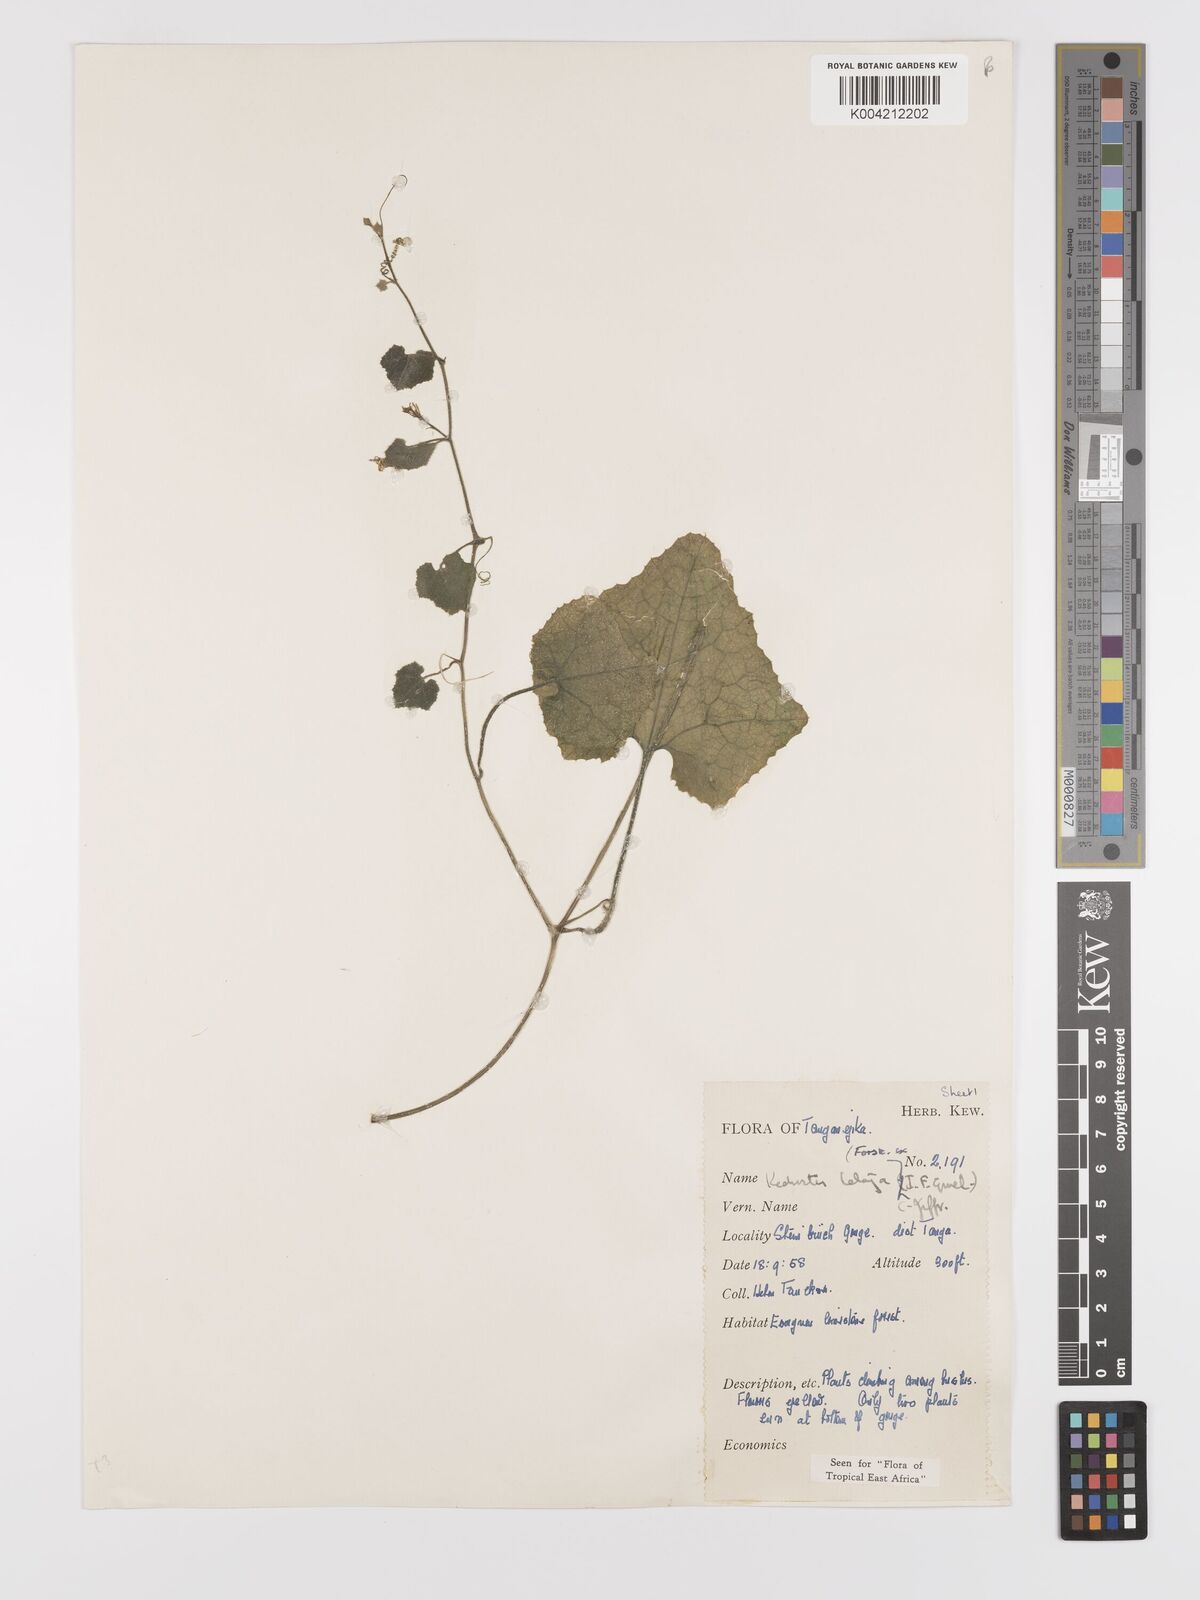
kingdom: Plantae
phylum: Tracheophyta
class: Magnoliopsida
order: Cucurbitales
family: Cucurbitaceae
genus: Kedrostis
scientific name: Kedrostis abdallae
